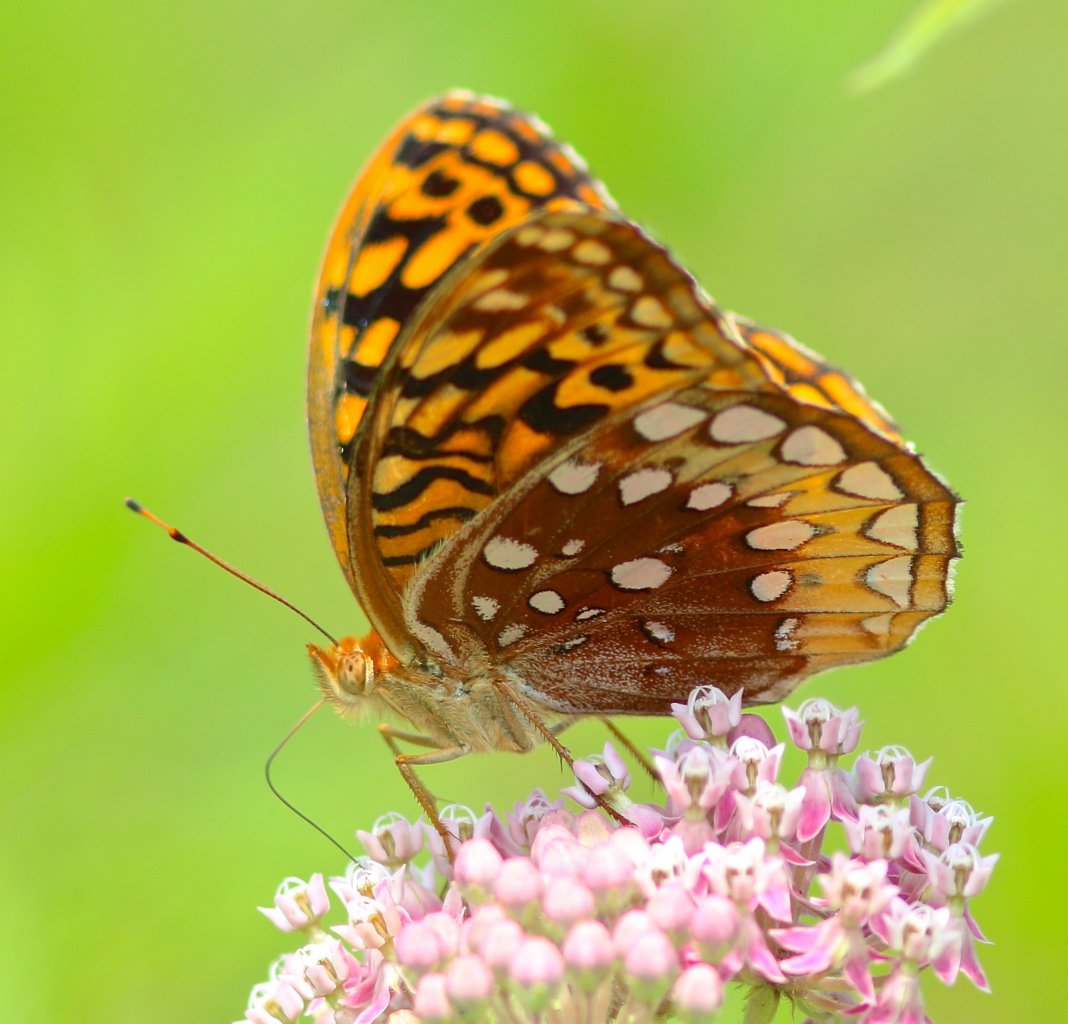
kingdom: Animalia
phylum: Arthropoda
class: Insecta
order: Lepidoptera
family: Nymphalidae
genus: Speyeria
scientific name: Speyeria cybele
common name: Great Spangled Fritillary
